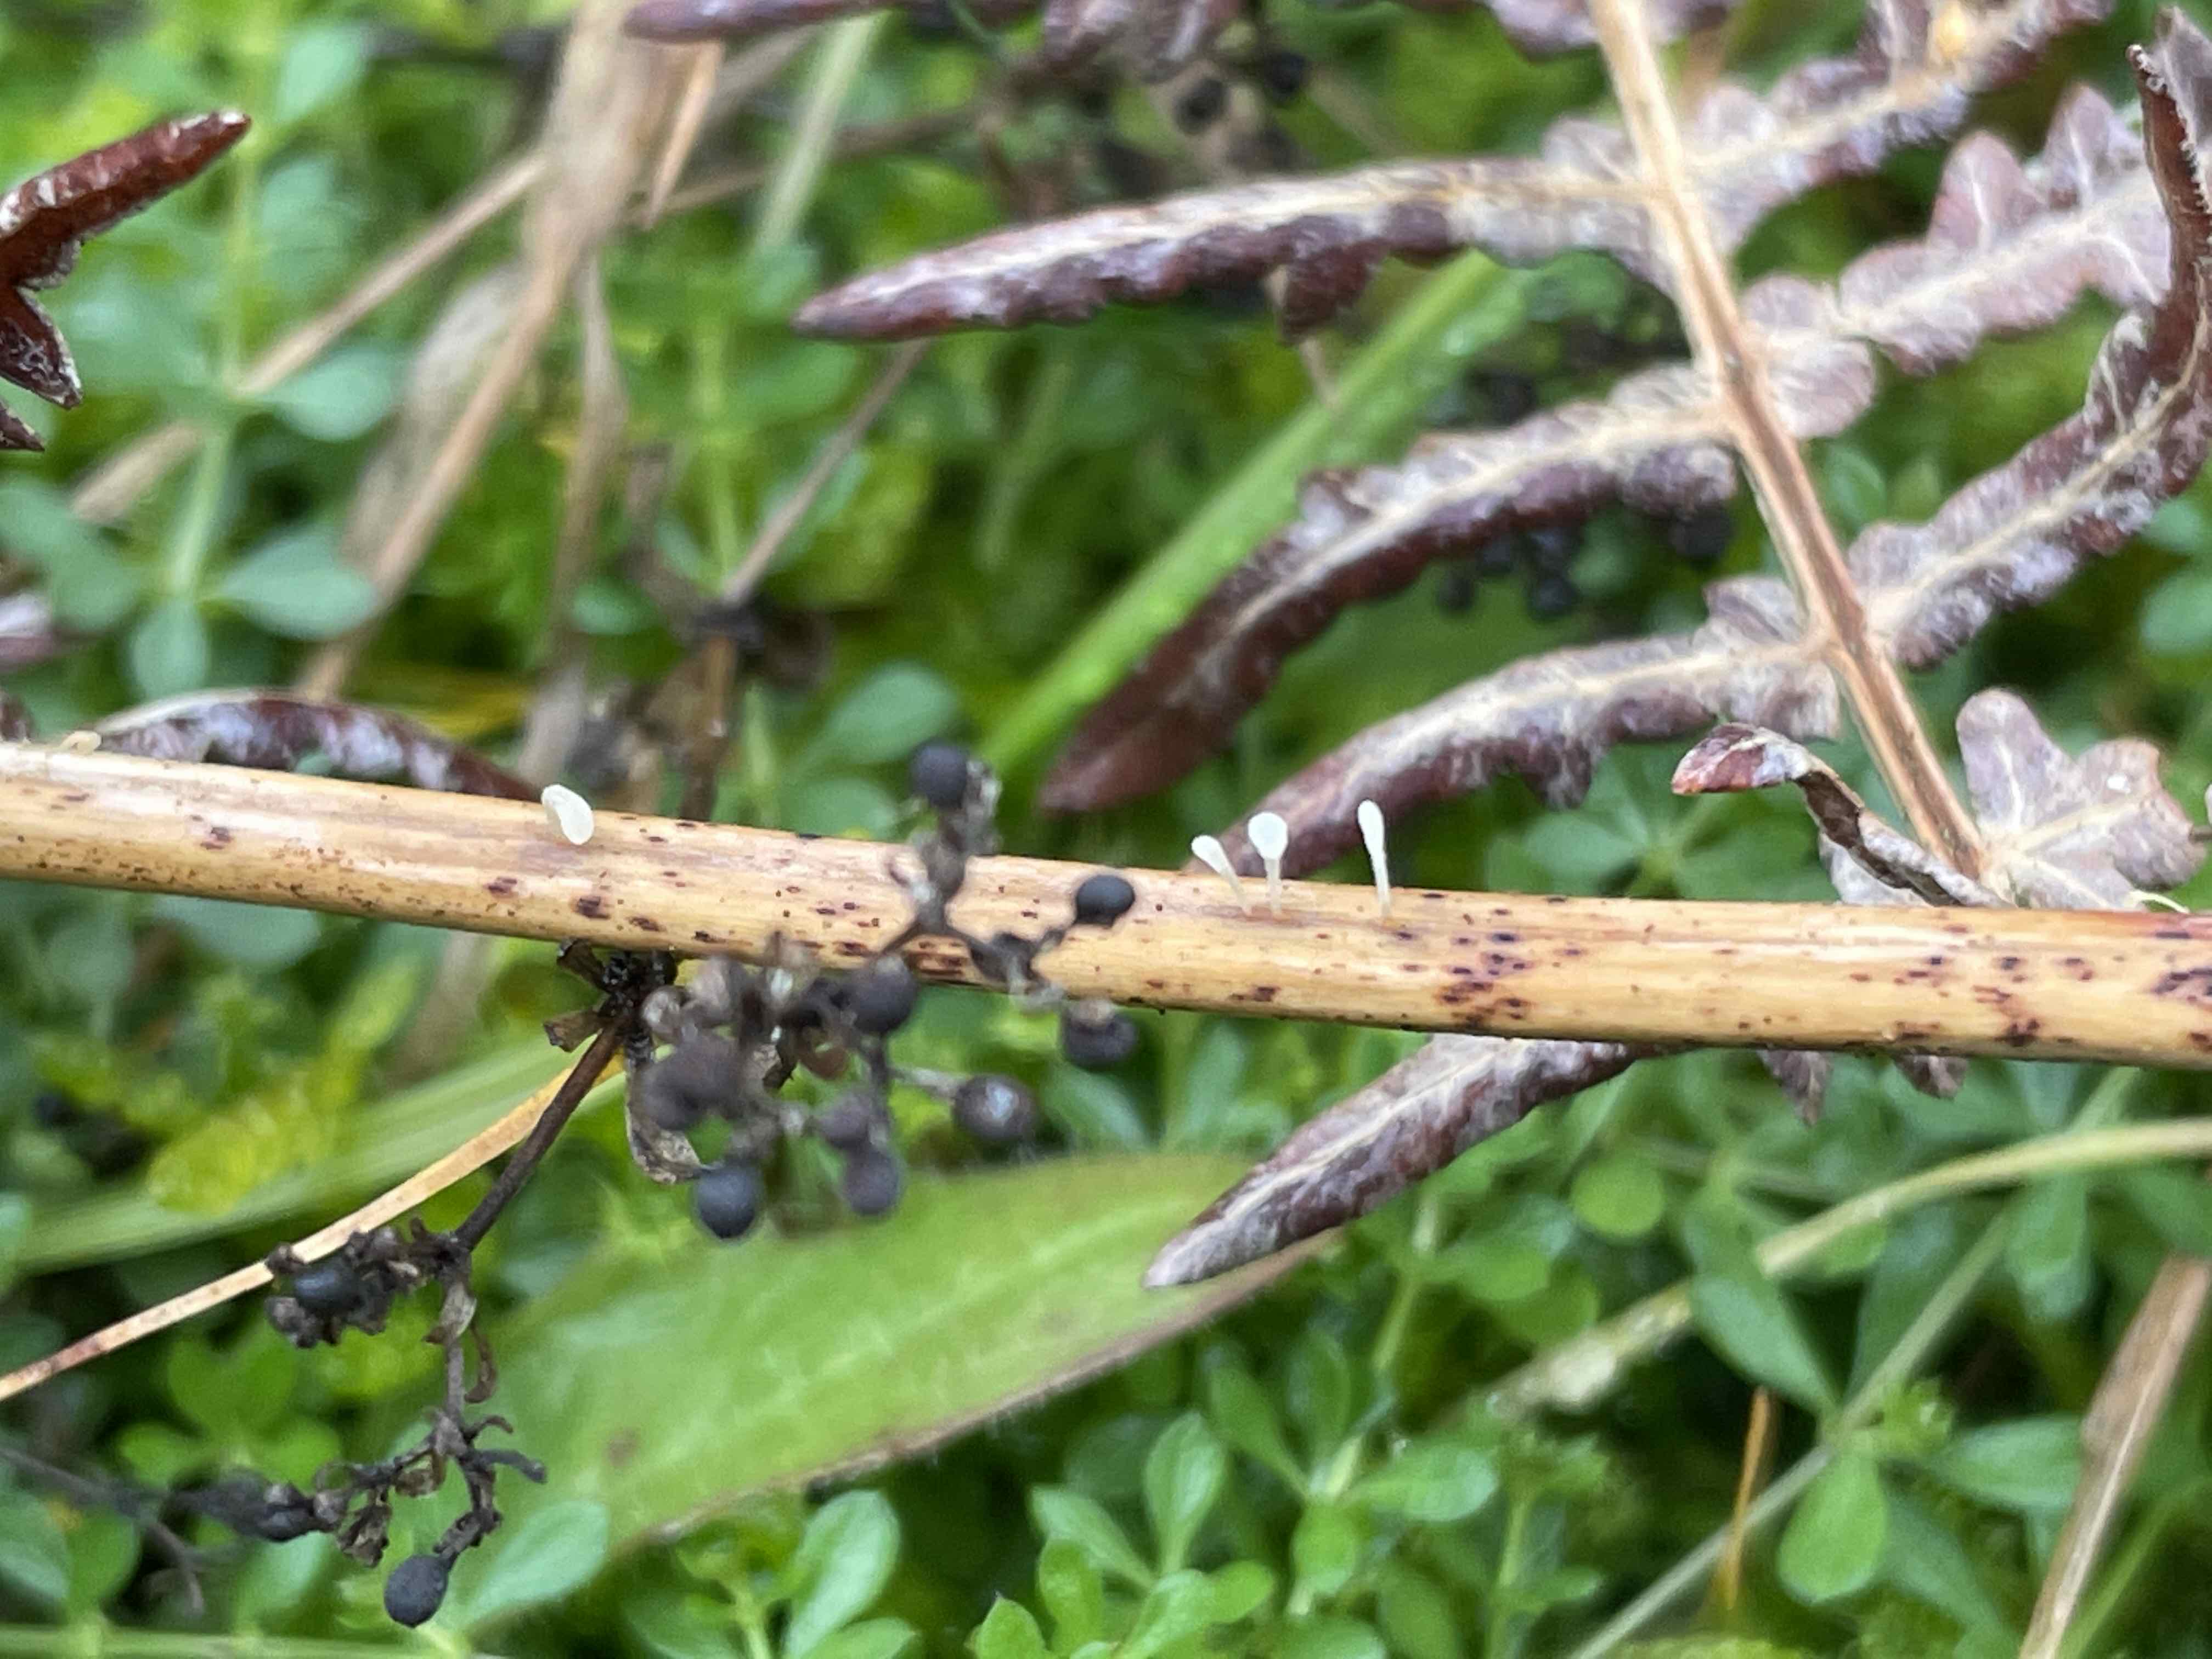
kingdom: Fungi
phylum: Basidiomycota
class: Agaricomycetes
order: Agaricales
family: Typhulaceae
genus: Typhula
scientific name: Typhula quisquiliaris
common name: ørnebregne-trådkølle
